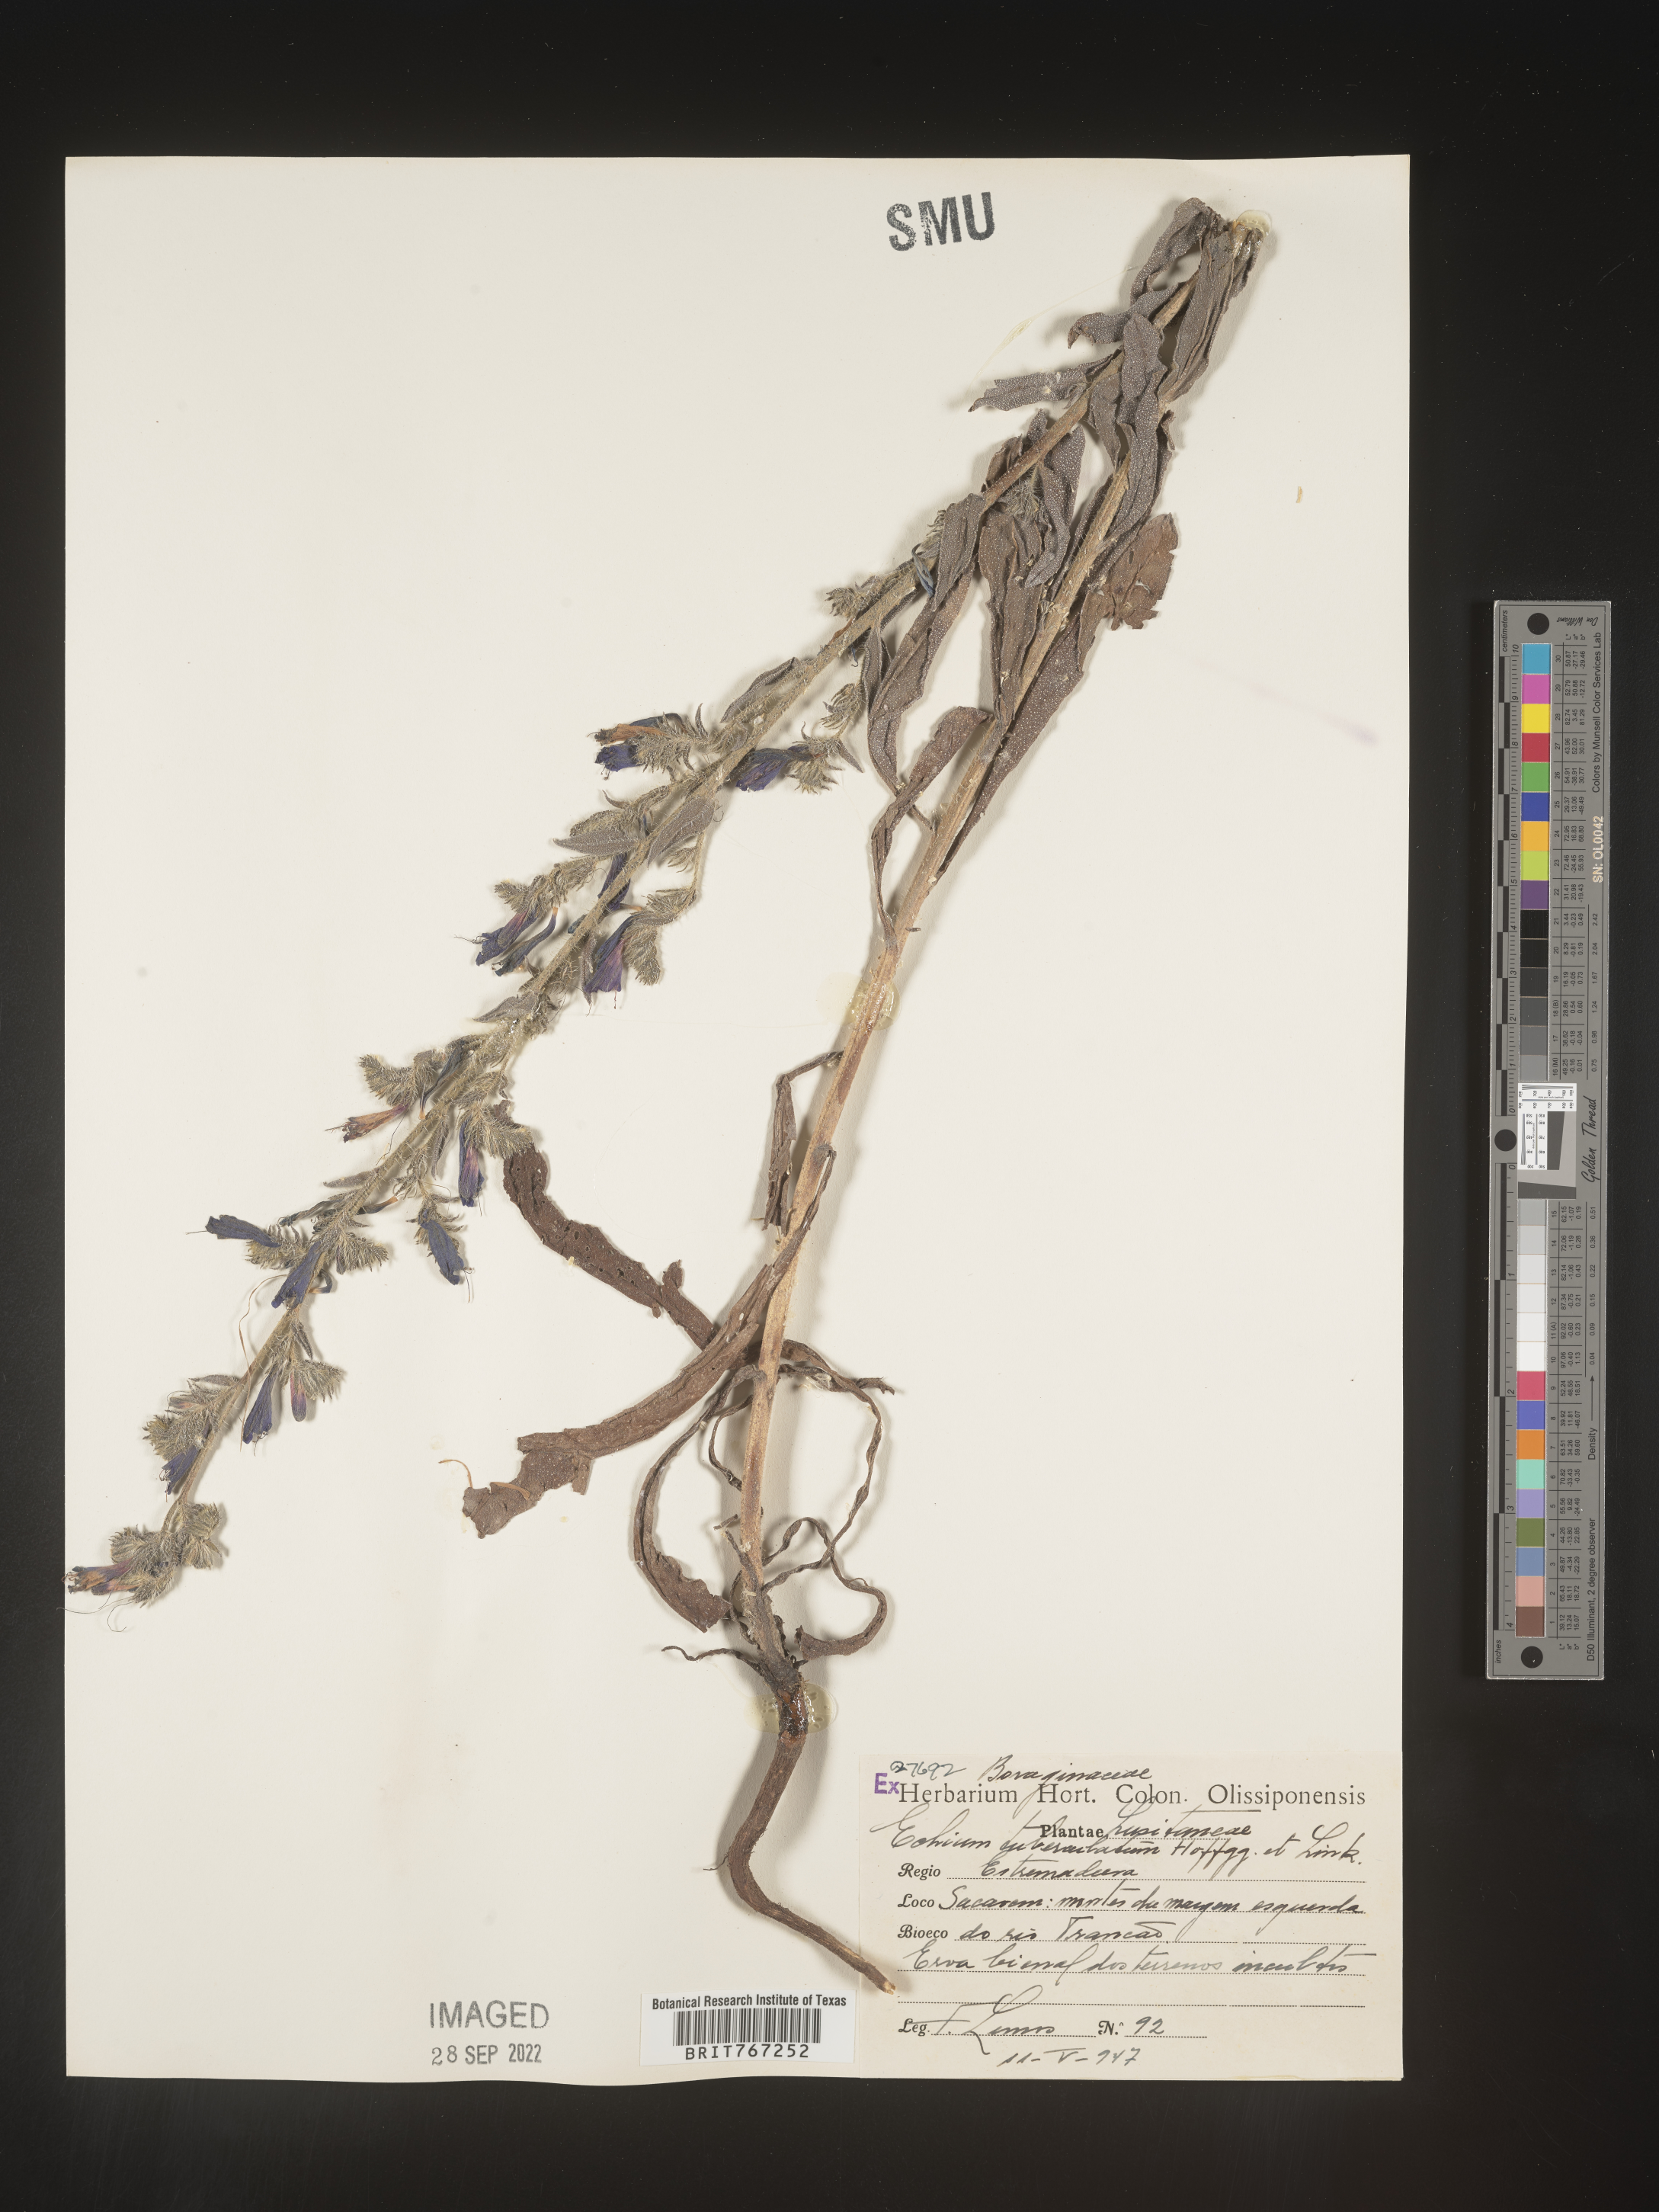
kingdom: Plantae
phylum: Tracheophyta
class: Magnoliopsida
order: Boraginales
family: Boraginaceae
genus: Echium
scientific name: Echium
